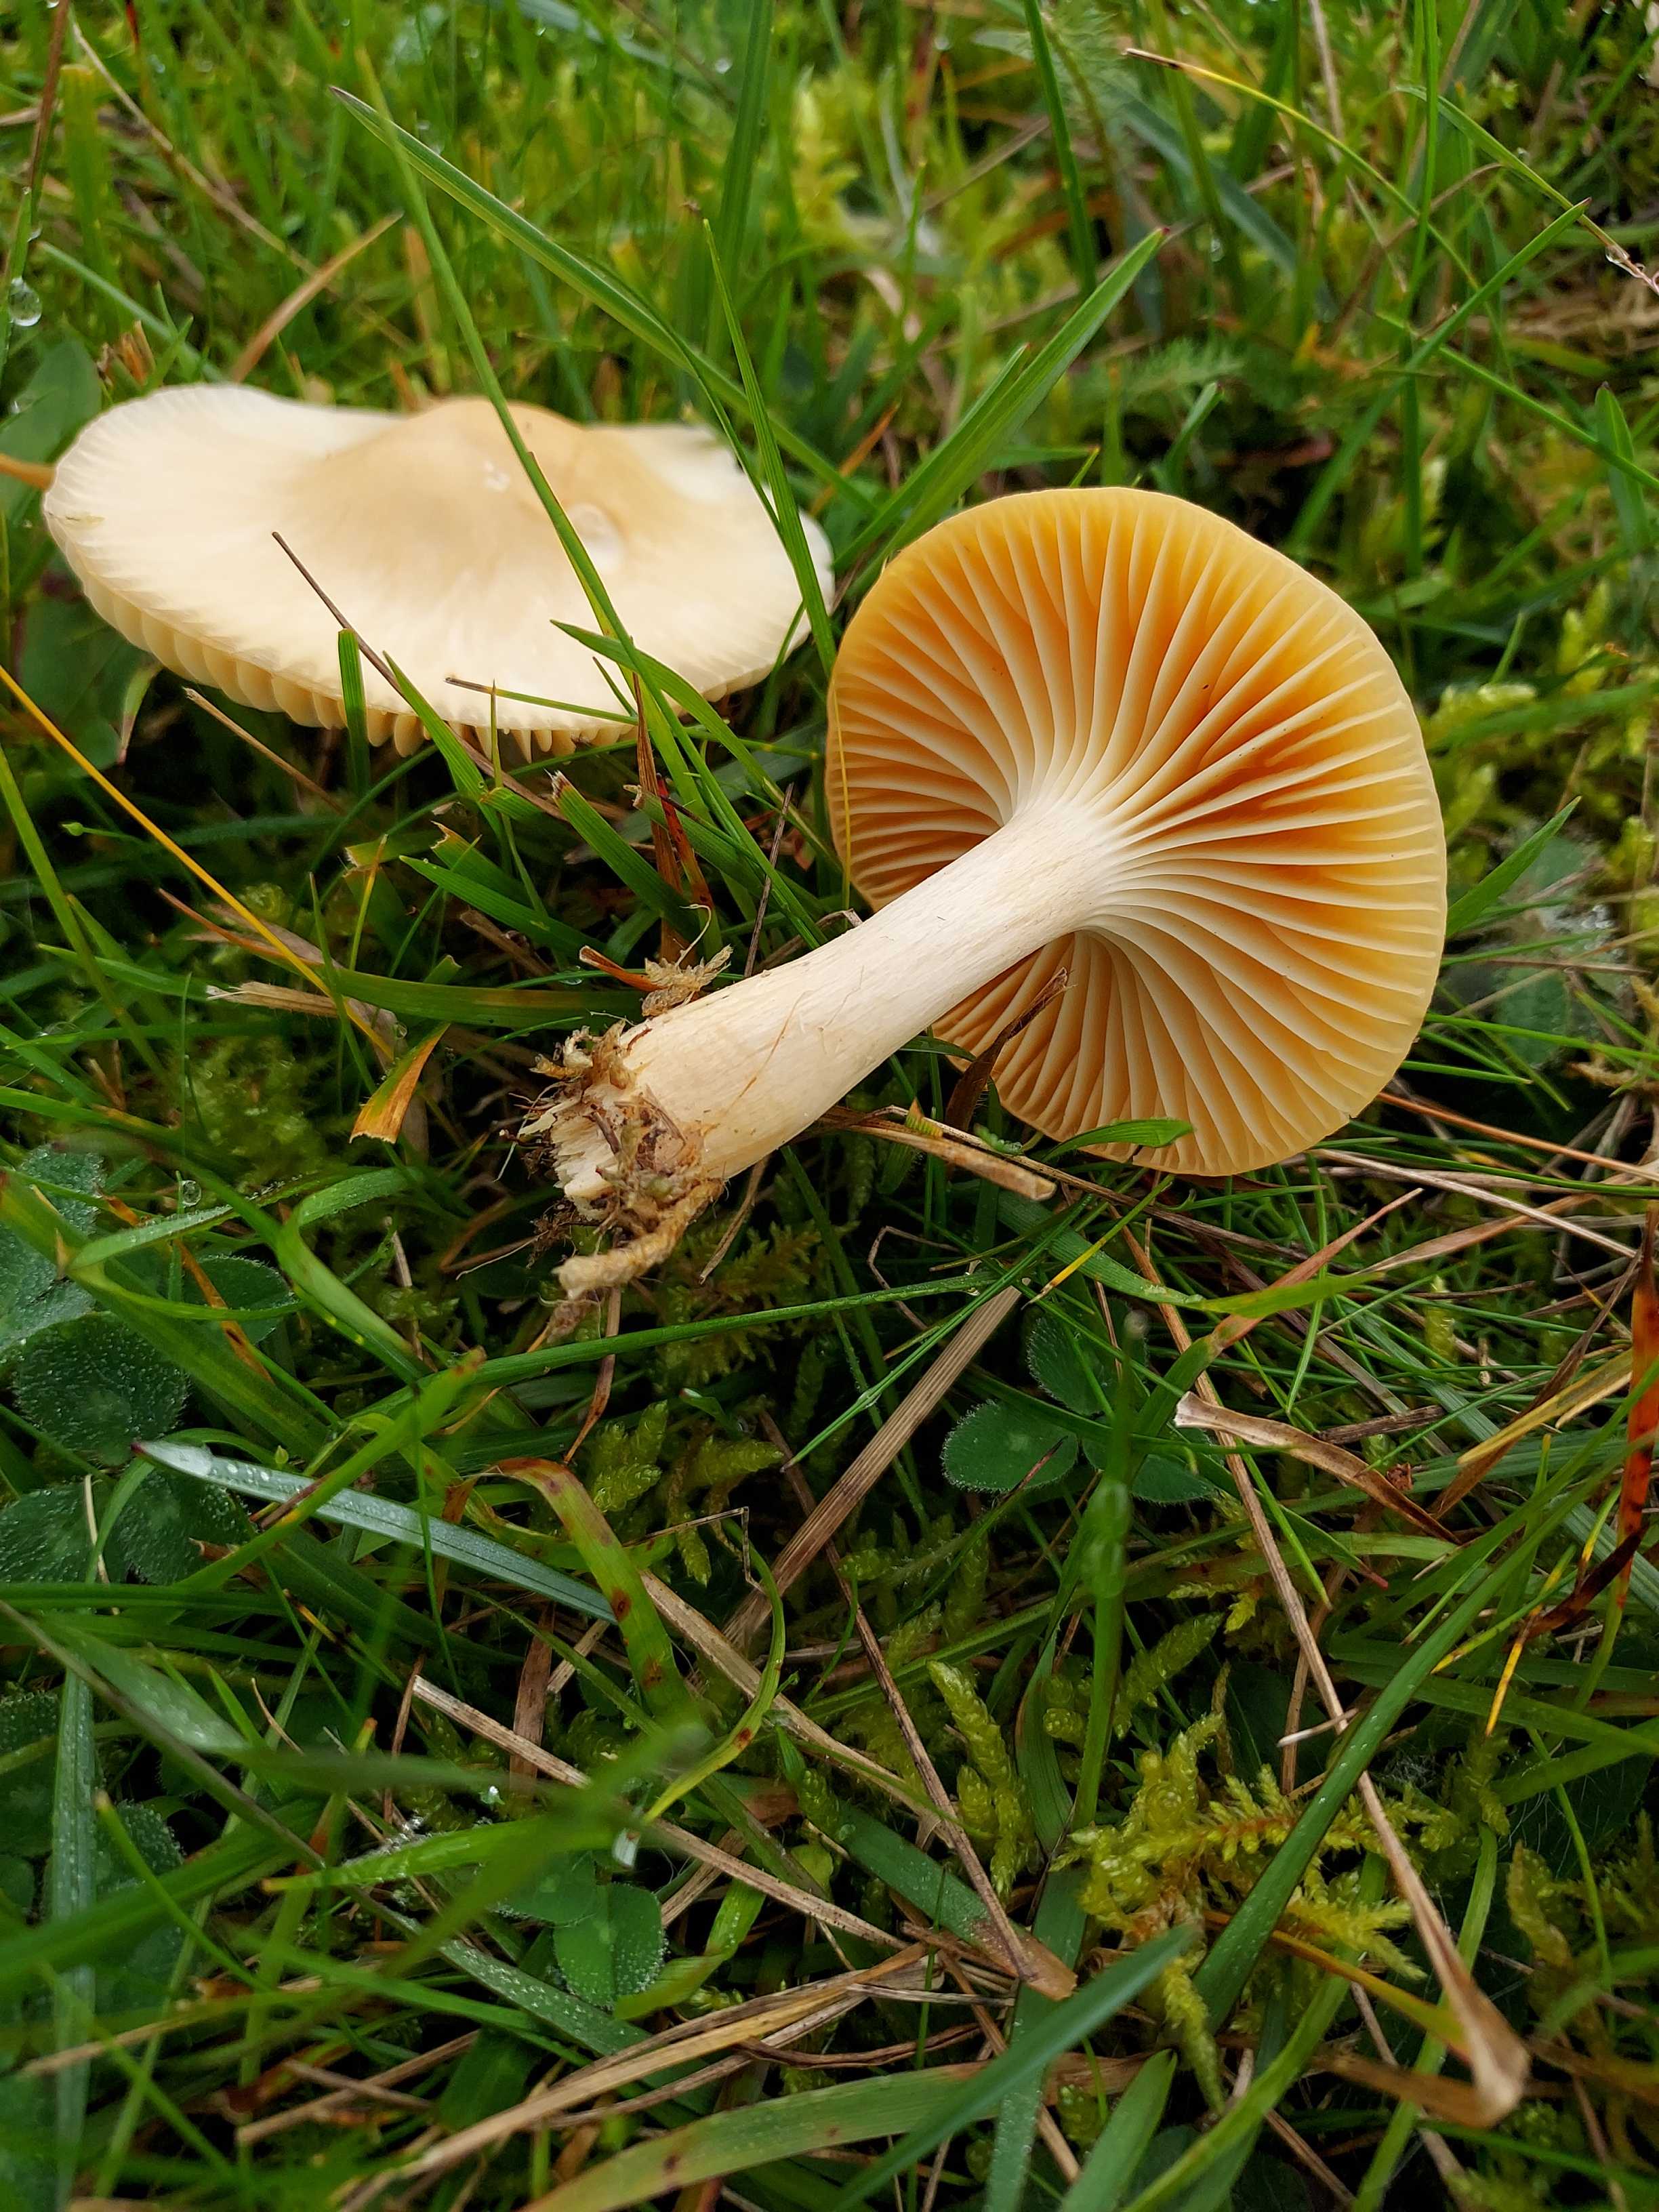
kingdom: Fungi
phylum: Basidiomycota
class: Agaricomycetes
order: Agaricales
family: Hygrophoraceae
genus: Cuphophyllus
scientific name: Cuphophyllus pratensis
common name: eng-vokshat
